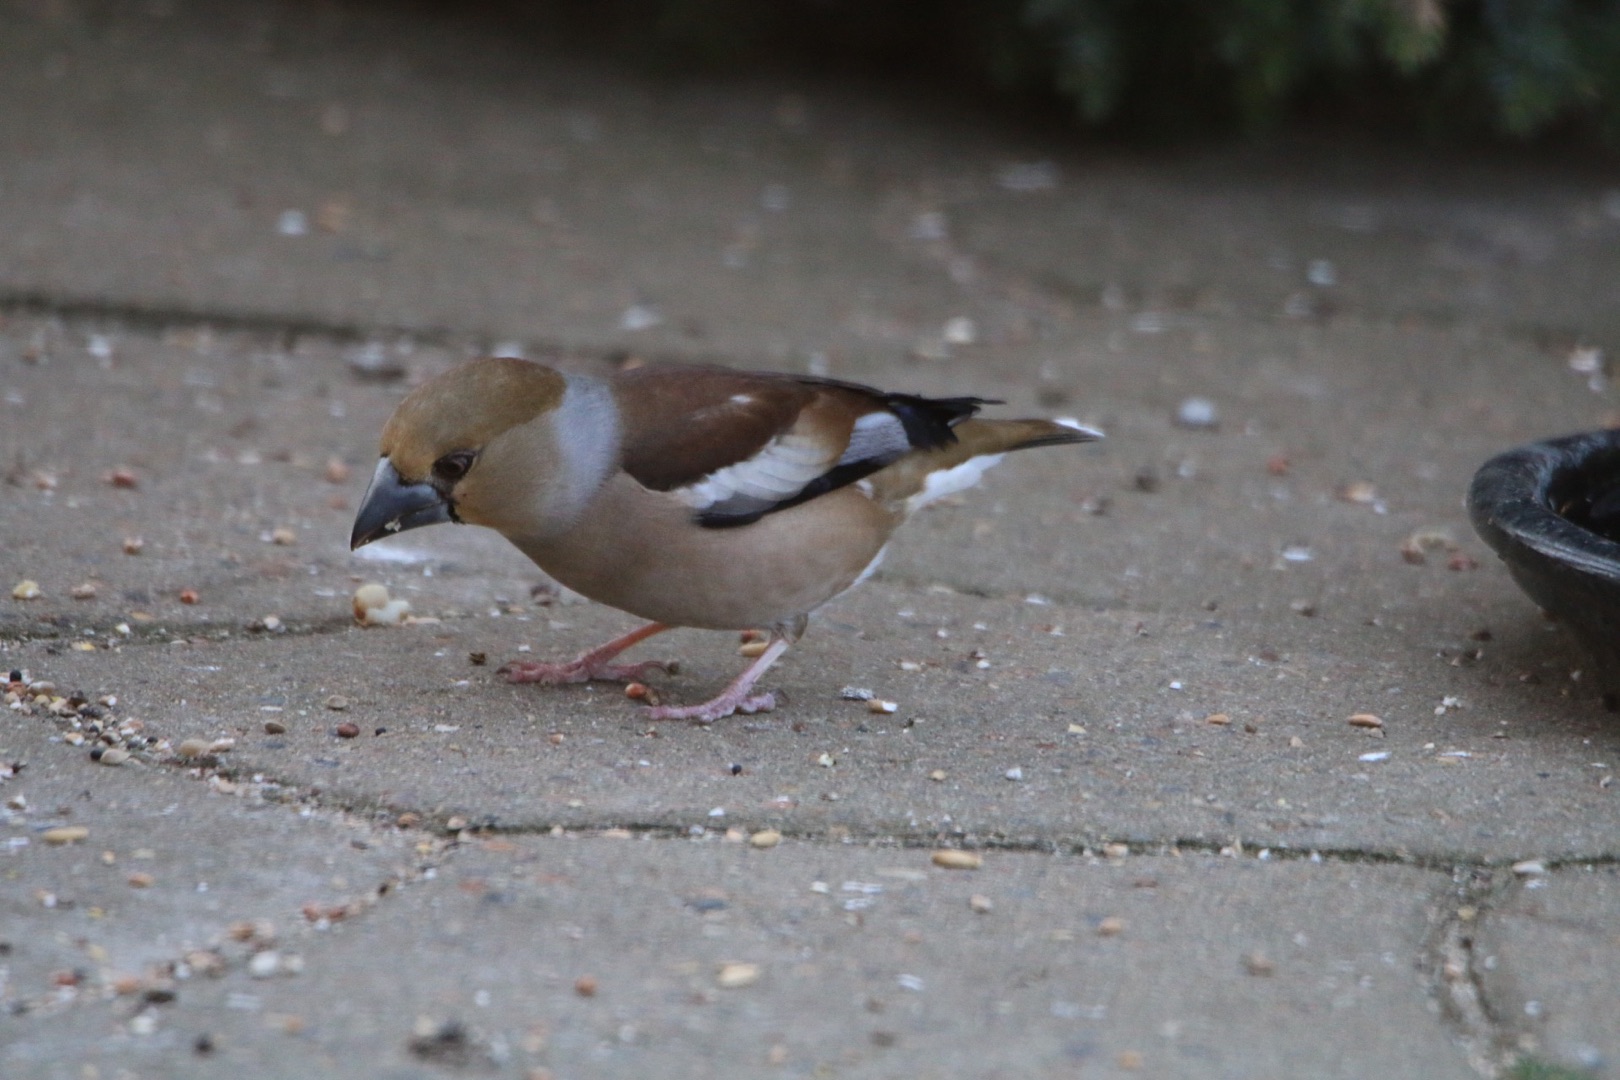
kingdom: Animalia
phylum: Chordata
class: Aves
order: Passeriformes
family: Fringillidae
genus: Coccothraustes
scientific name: Coccothraustes coccothraustes
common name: Kernebider
